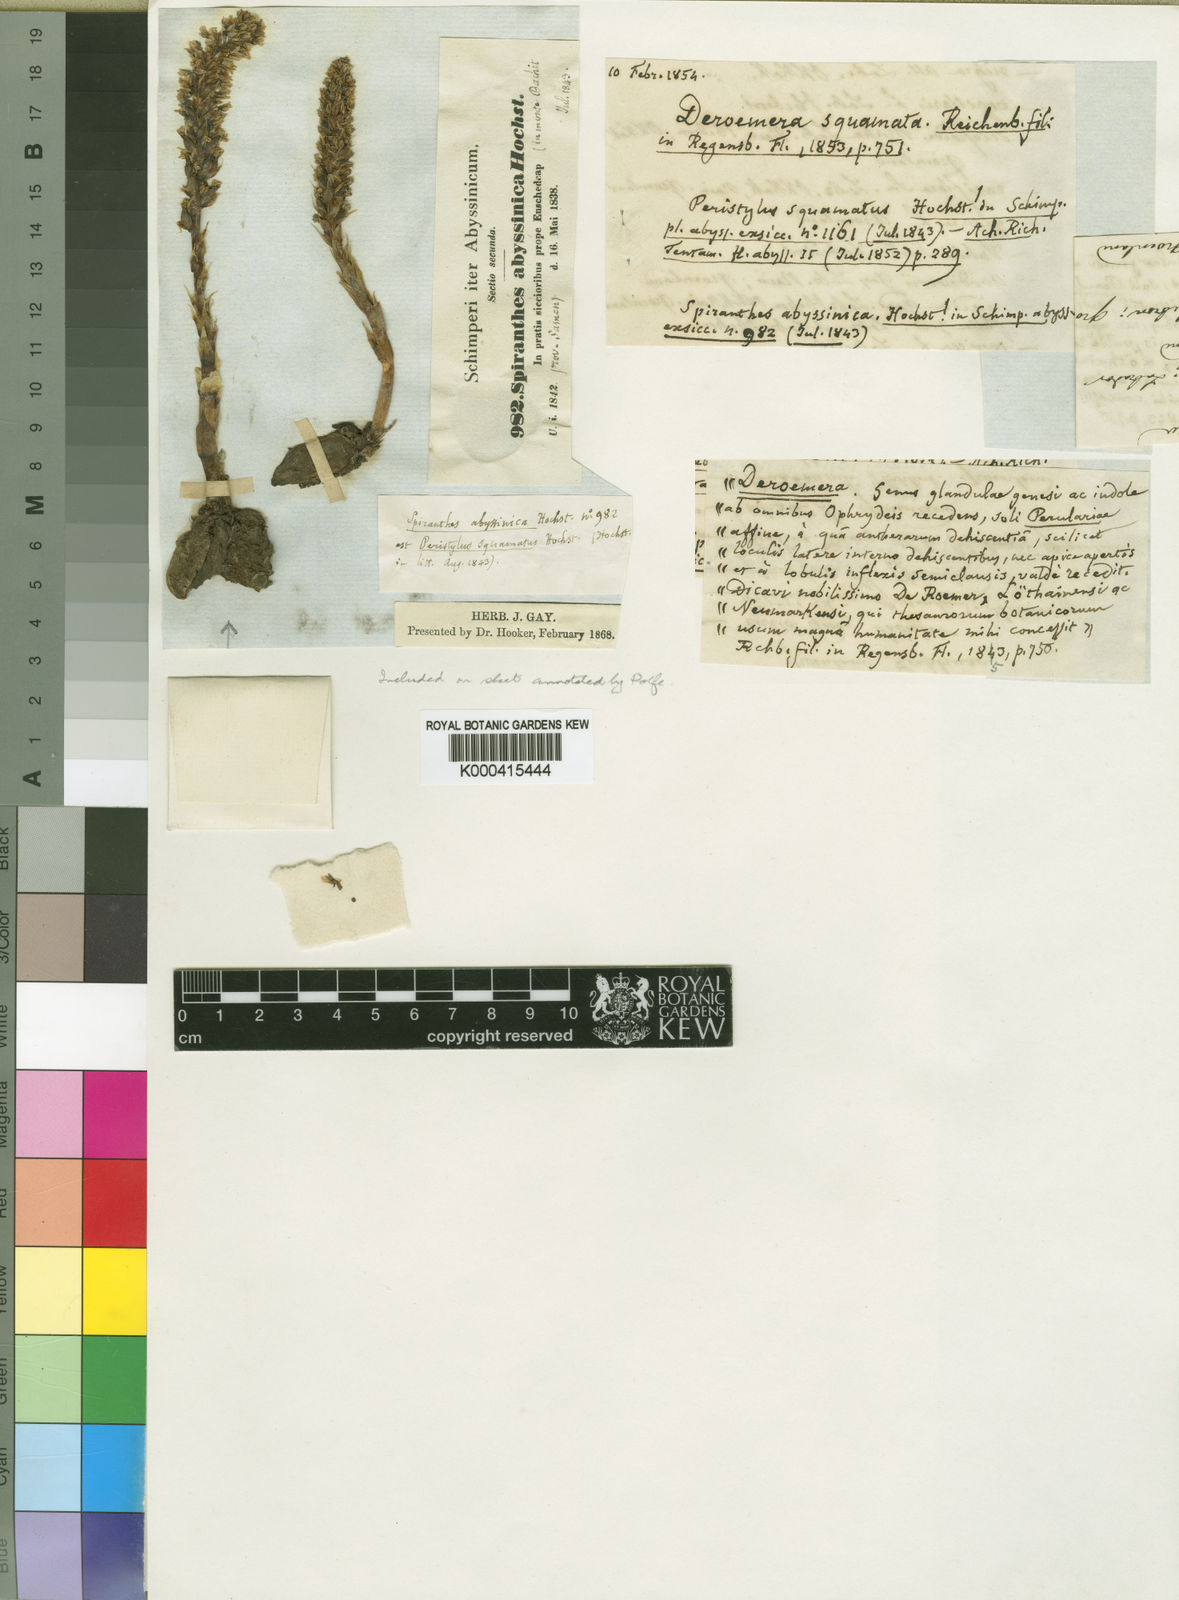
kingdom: Plantae
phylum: Tracheophyta
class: Liliopsida
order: Asparagales
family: Orchidaceae
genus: Holothrix
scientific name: Holothrix squammata
